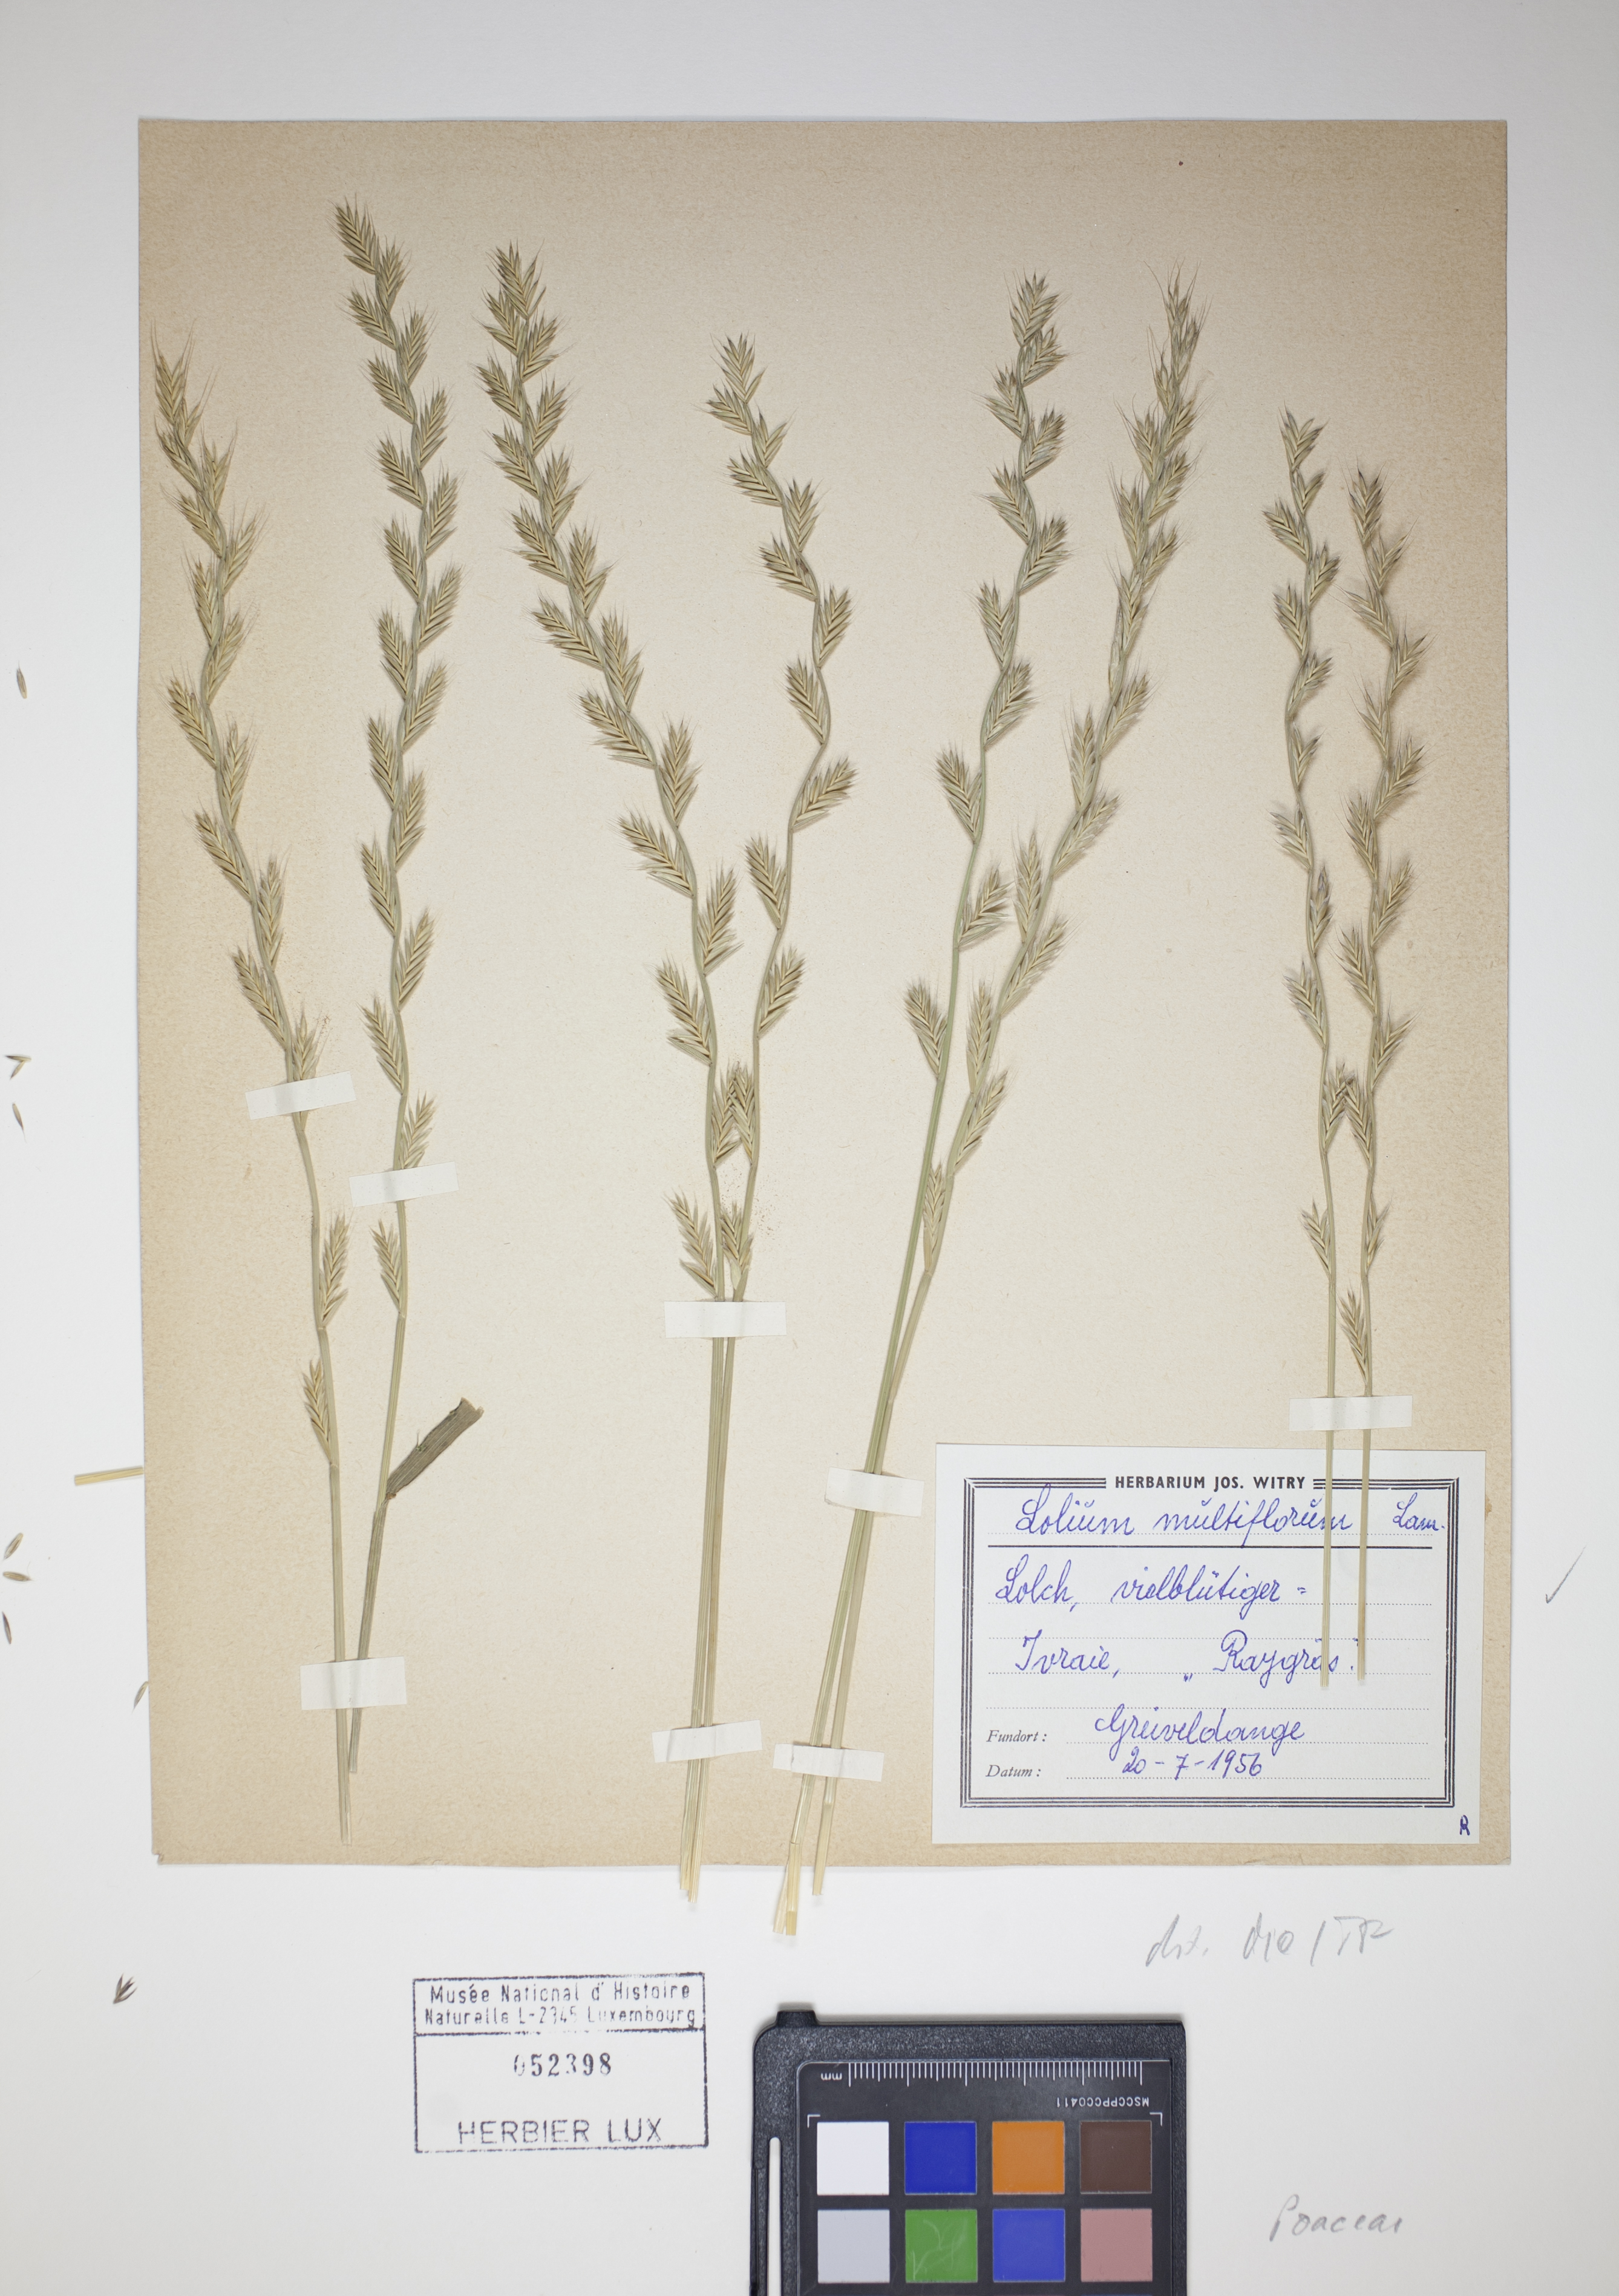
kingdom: Plantae
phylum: Tracheophyta
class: Liliopsida
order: Poales
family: Poaceae
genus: Lolium
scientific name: Lolium multiflorum
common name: Annual ryegrass
